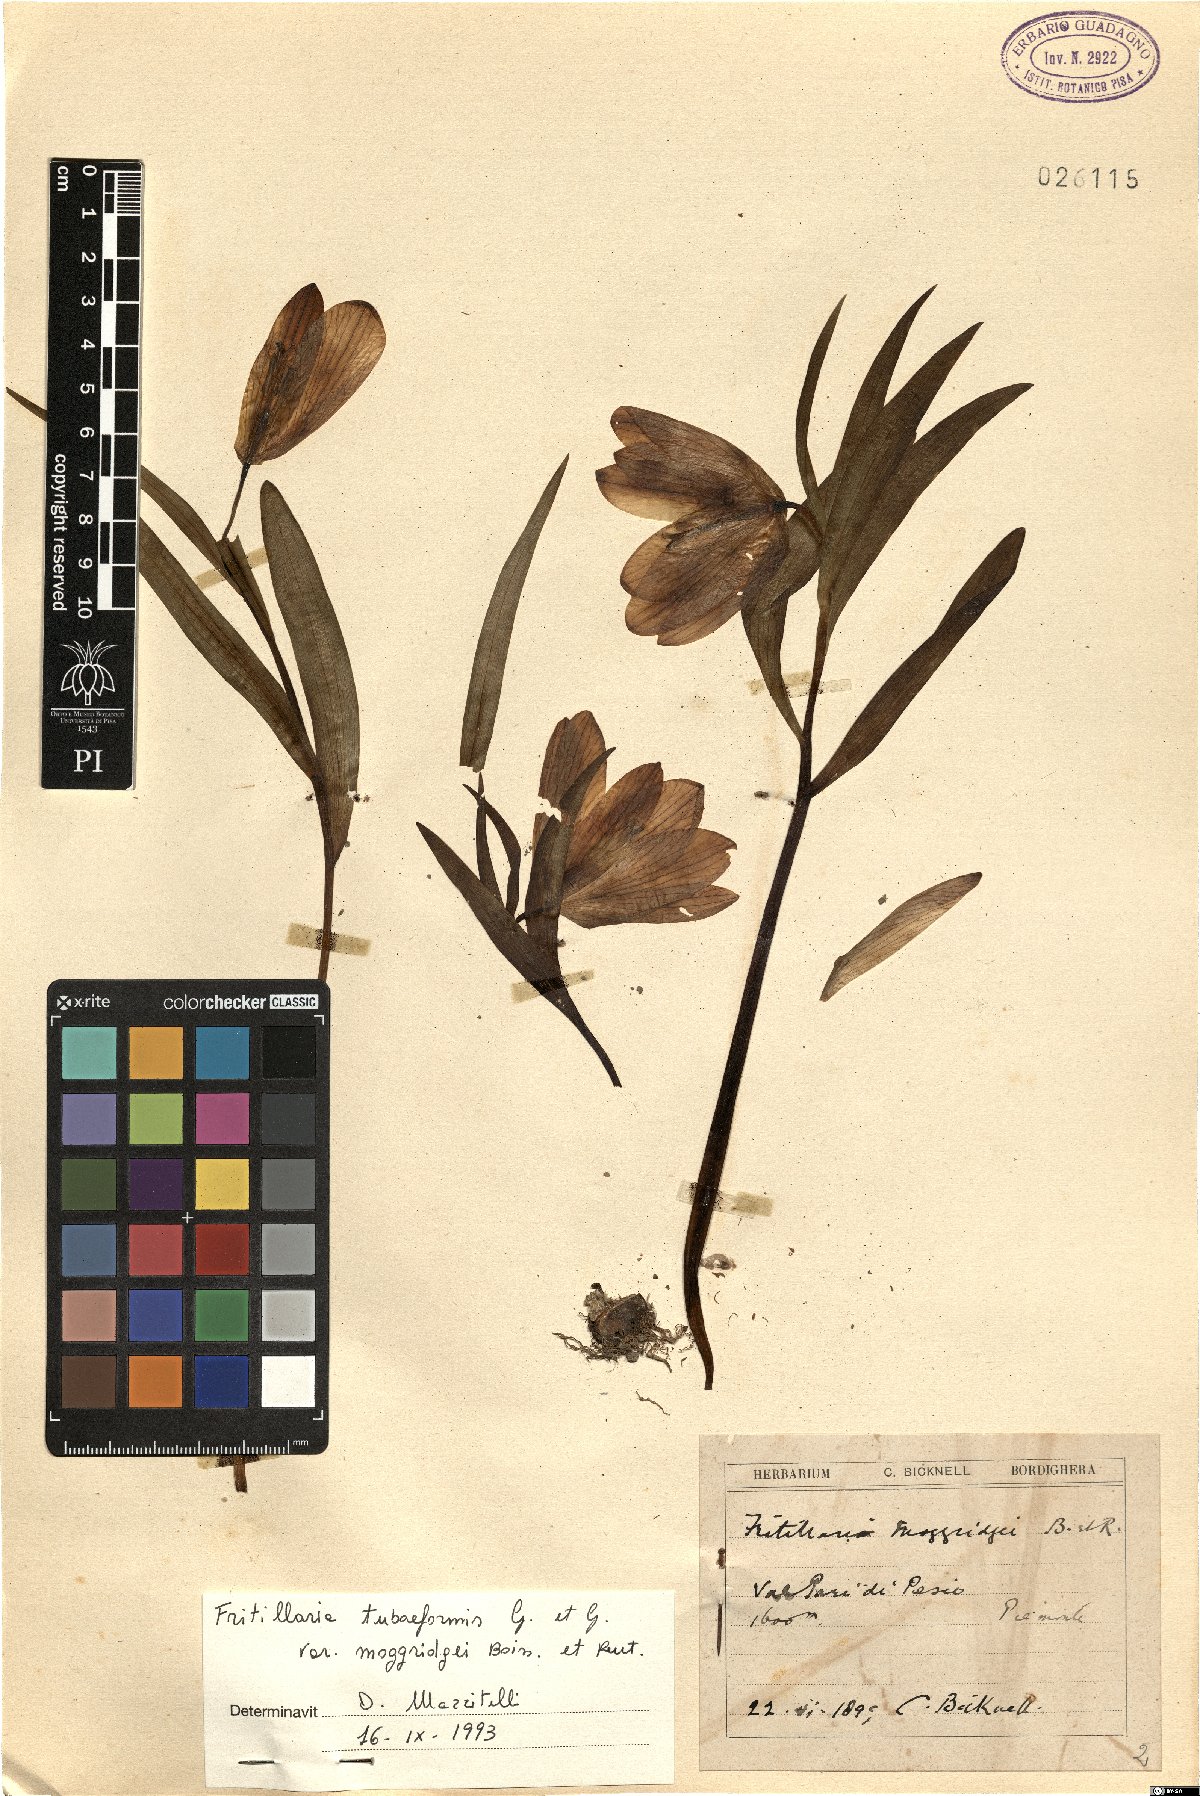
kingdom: Plantae
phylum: Tracheophyta
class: Liliopsida
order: Liliales
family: Liliaceae
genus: Fritillaria
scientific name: Fritillaria tubaeformis
